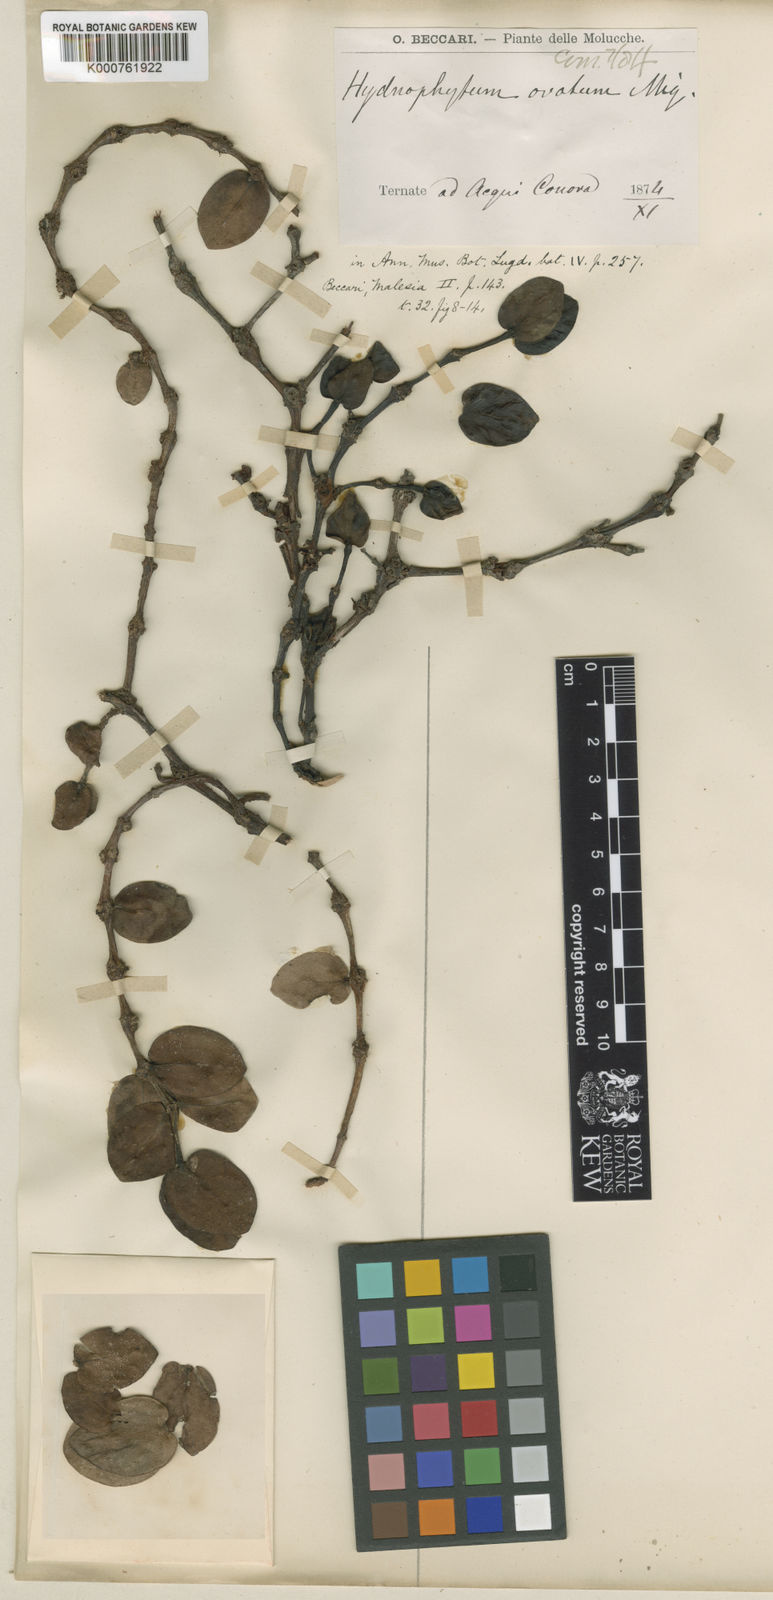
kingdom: Plantae
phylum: Tracheophyta
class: Magnoliopsida
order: Gentianales
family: Rubiaceae
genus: Hydnophytum
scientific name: Hydnophytum ovatum
